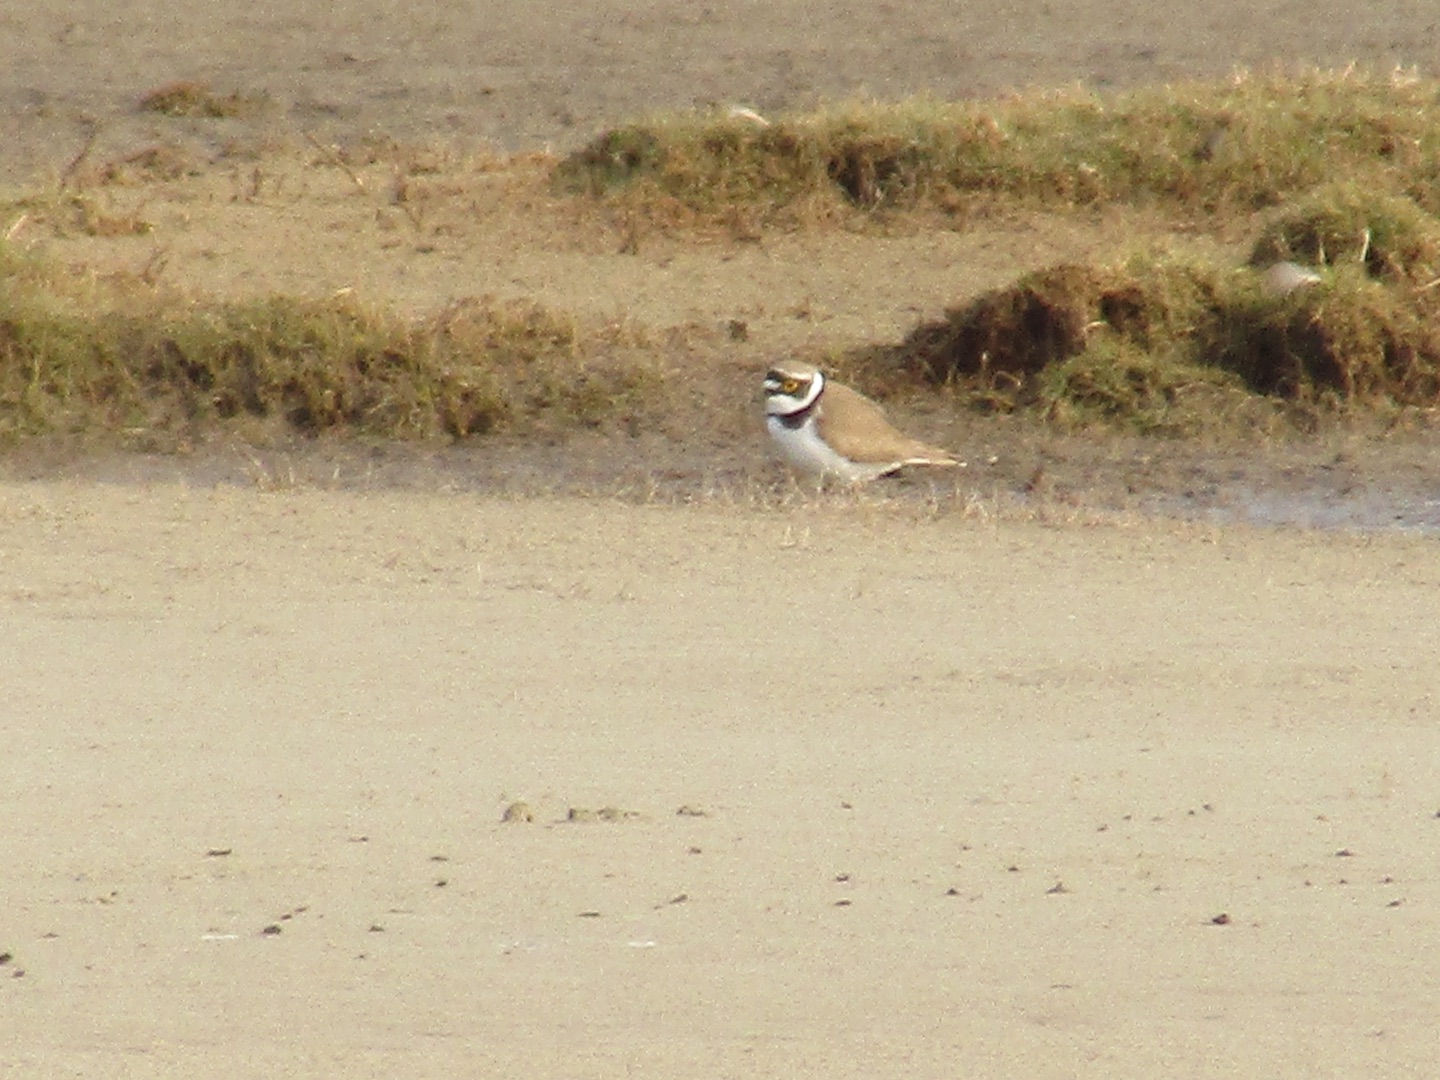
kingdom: Animalia
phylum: Chordata
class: Aves
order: Charadriiformes
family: Charadriidae
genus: Charadrius
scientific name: Charadrius dubius
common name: Lille præstekrave
